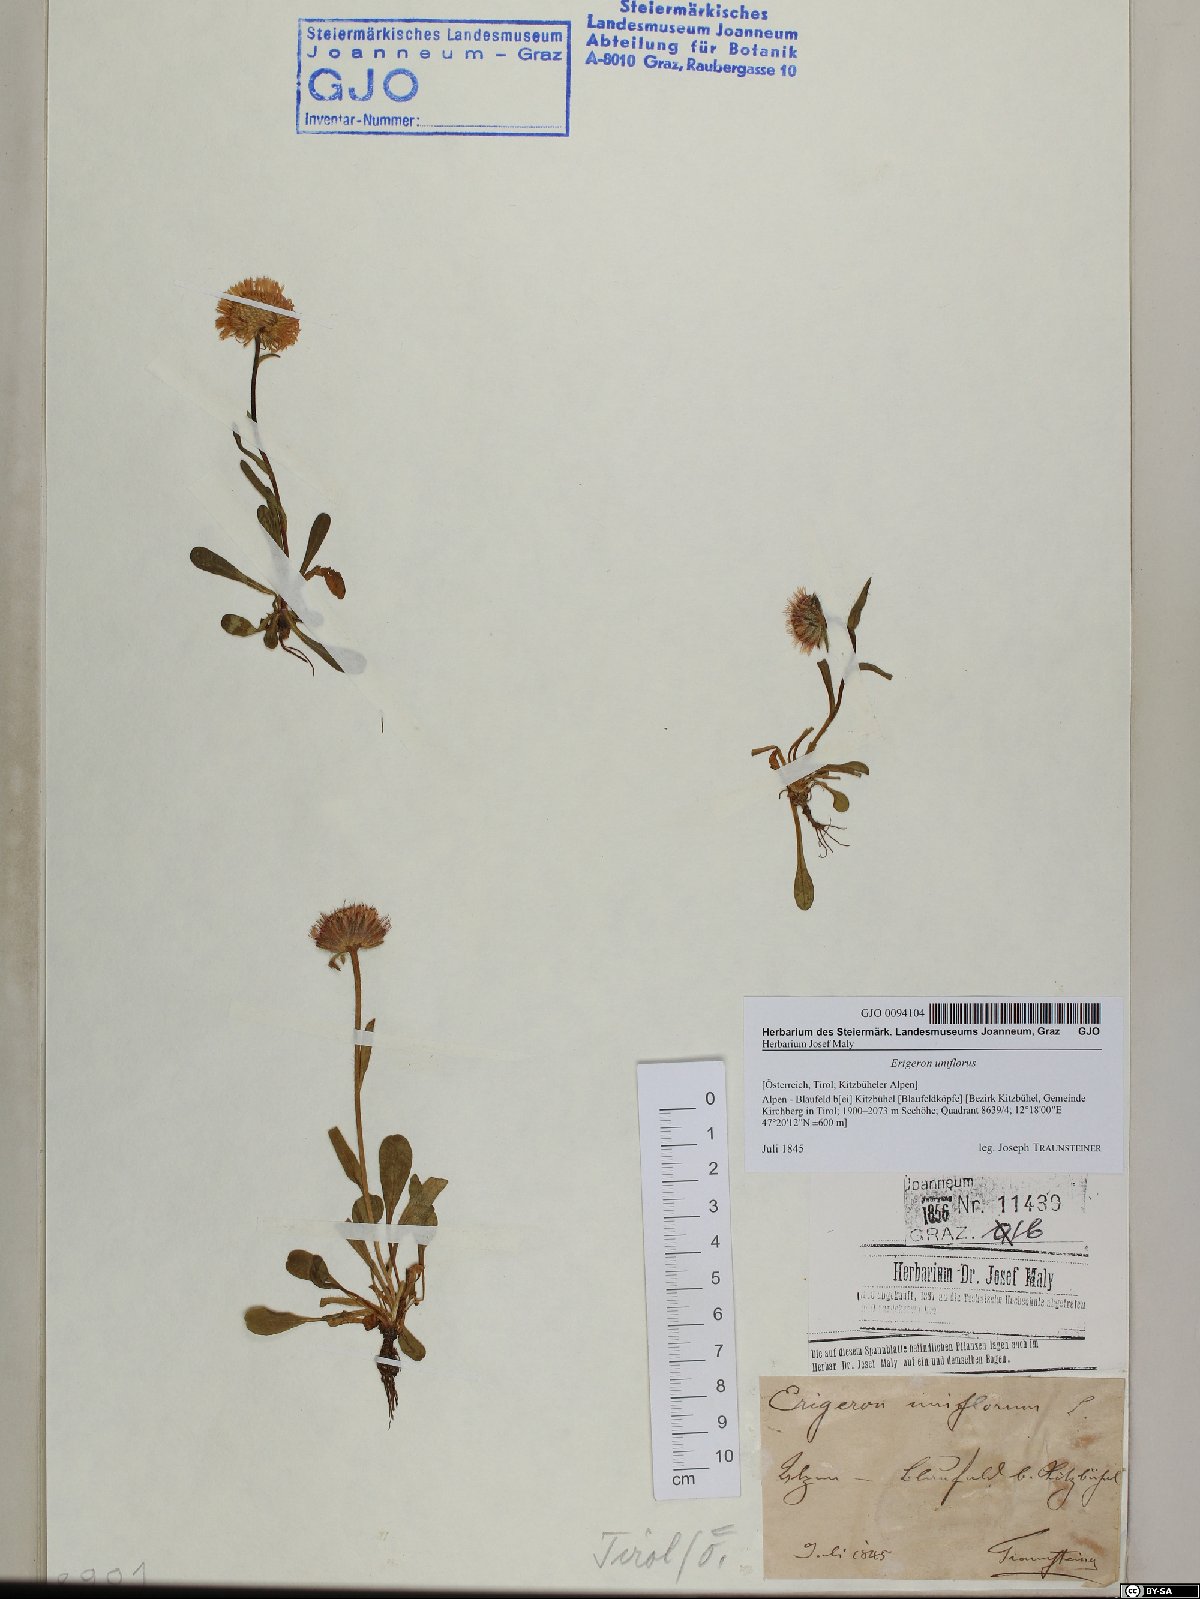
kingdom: Plantae
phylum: Tracheophyta
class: Magnoliopsida
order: Asterales
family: Asteraceae
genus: Erigeron
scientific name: Erigeron uniflorus
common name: Northern daisy
